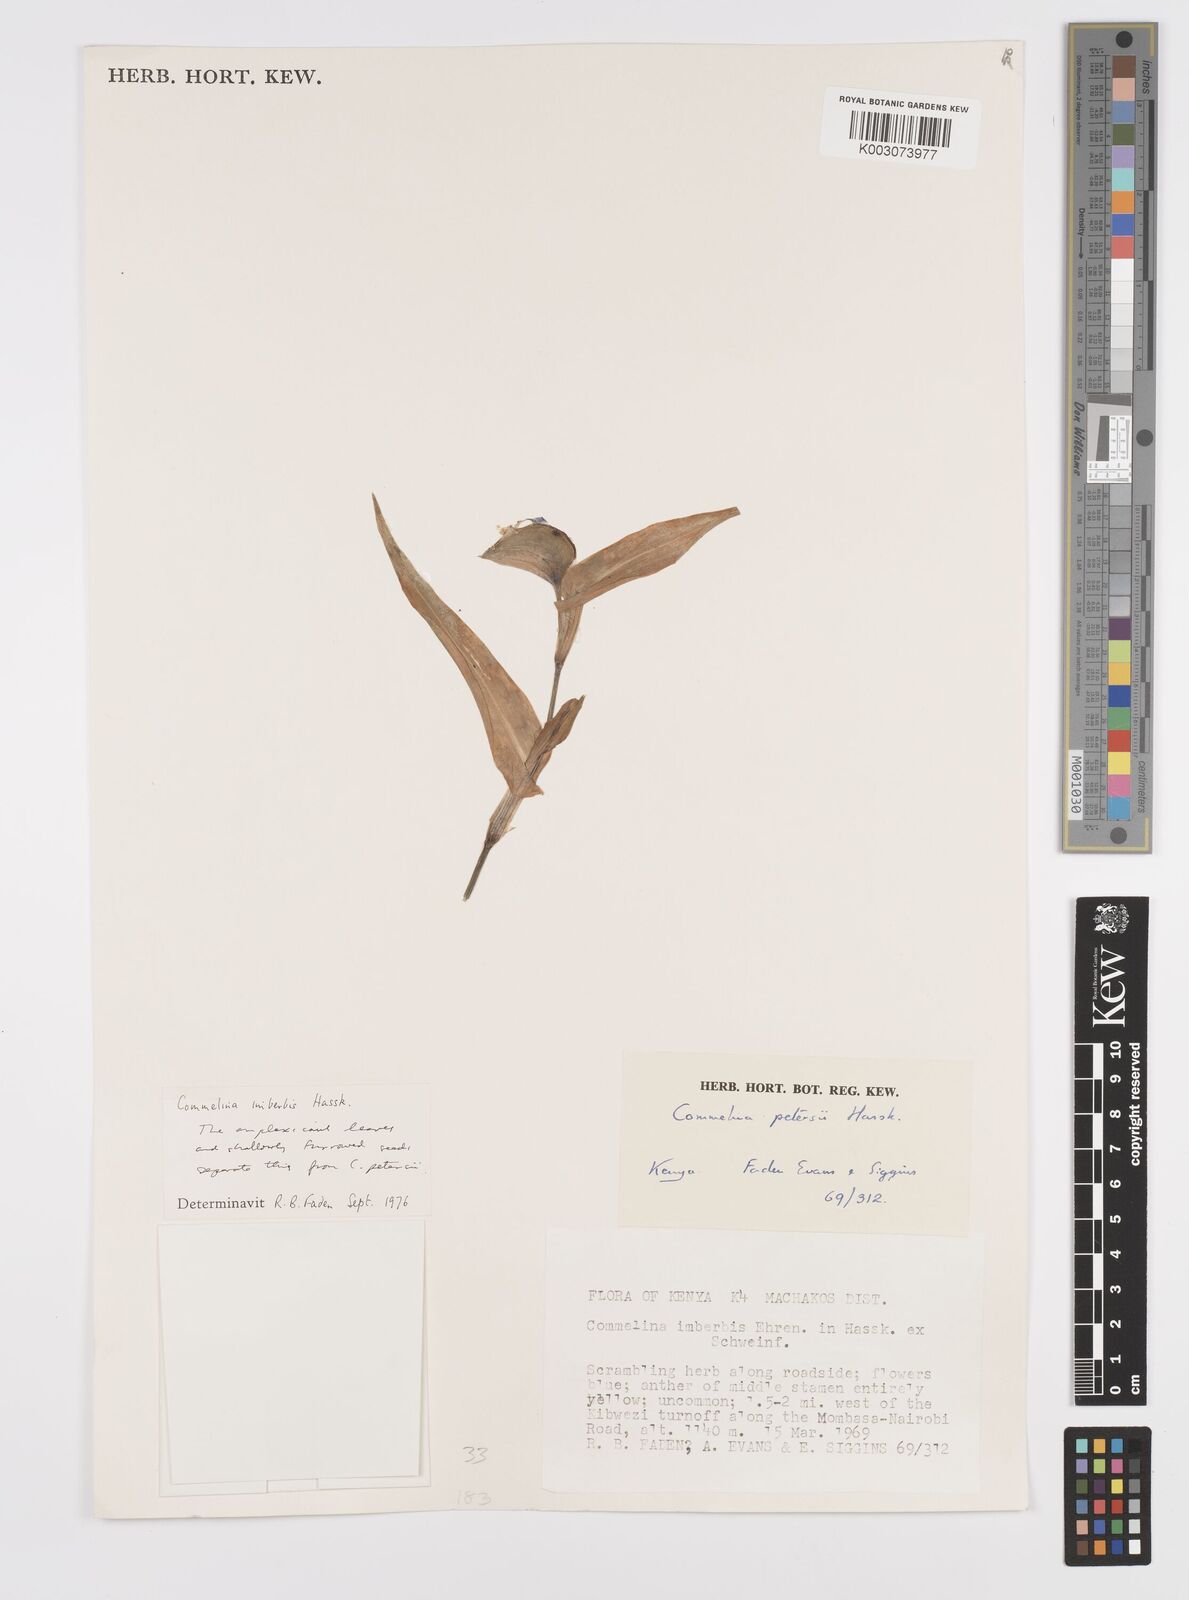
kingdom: Plantae
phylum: Tracheophyta
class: Liliopsida
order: Commelinales
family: Commelinaceae
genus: Commelina
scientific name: Commelina imberbis
